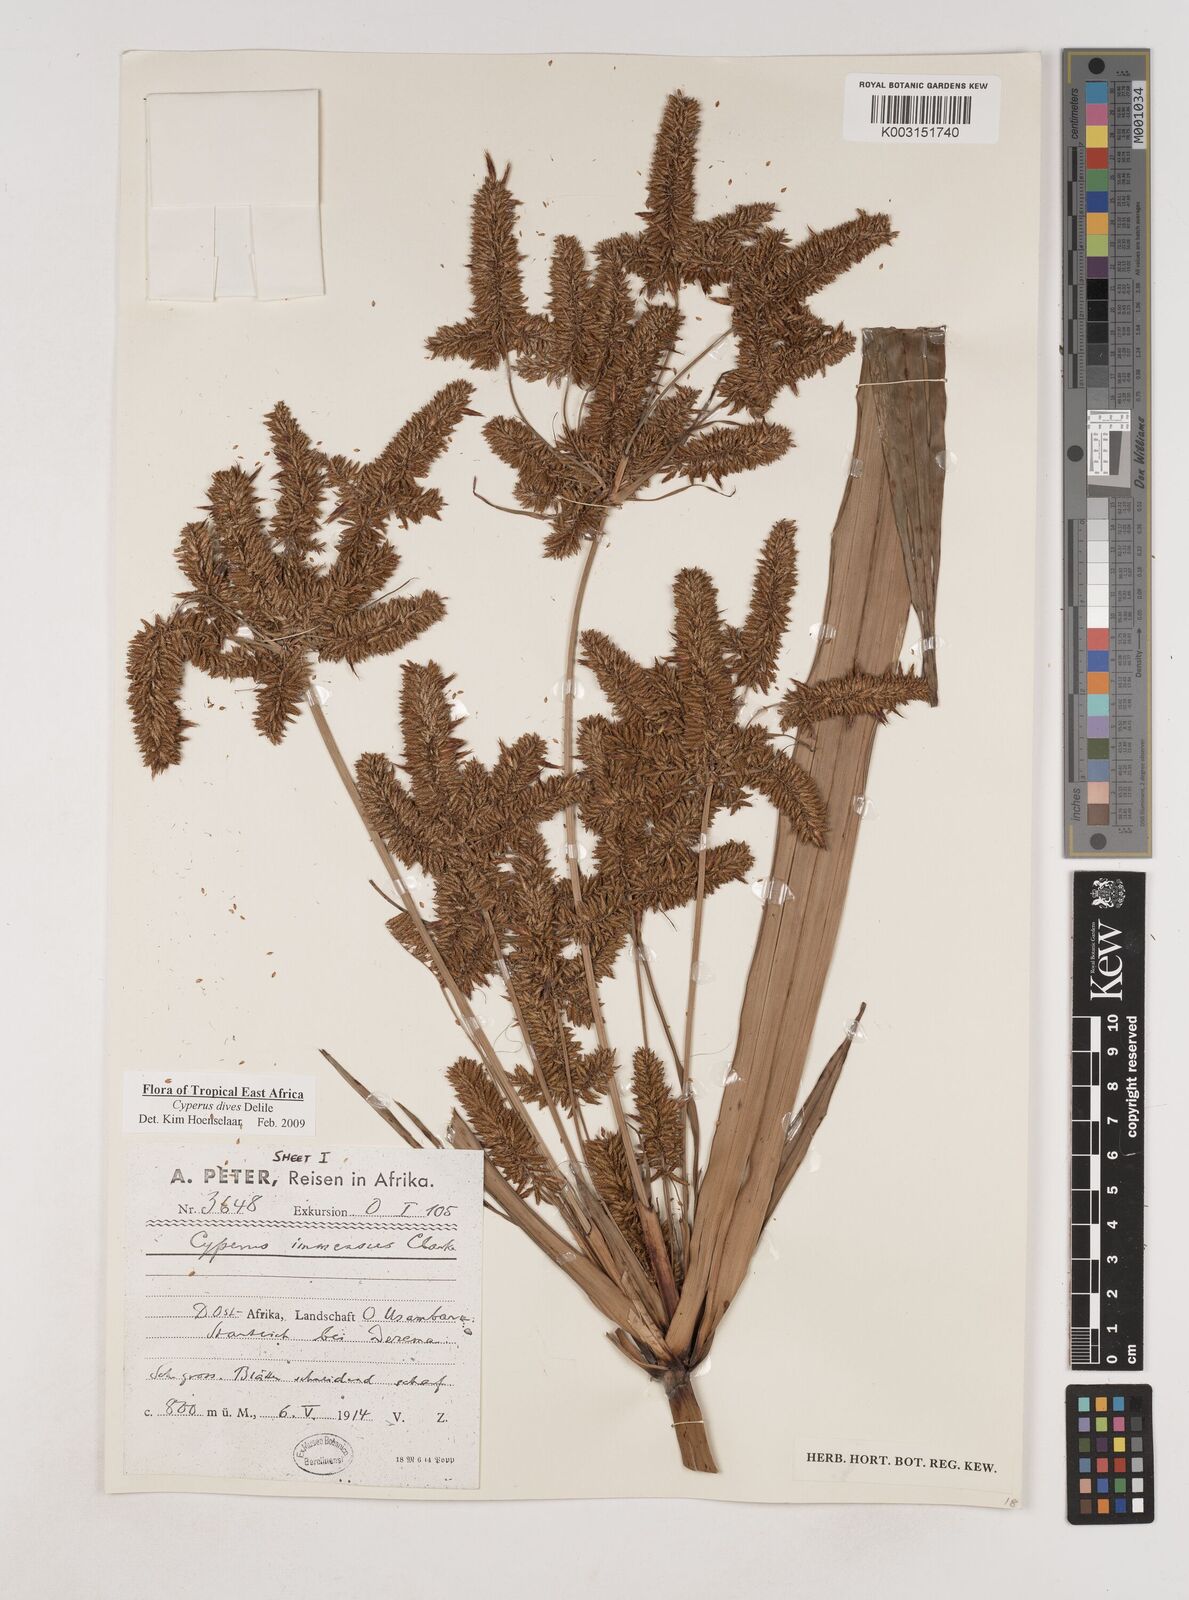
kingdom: Plantae
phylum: Tracheophyta
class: Liliopsida
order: Poales
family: Cyperaceae
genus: Cyperus
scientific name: Cyperus dives
